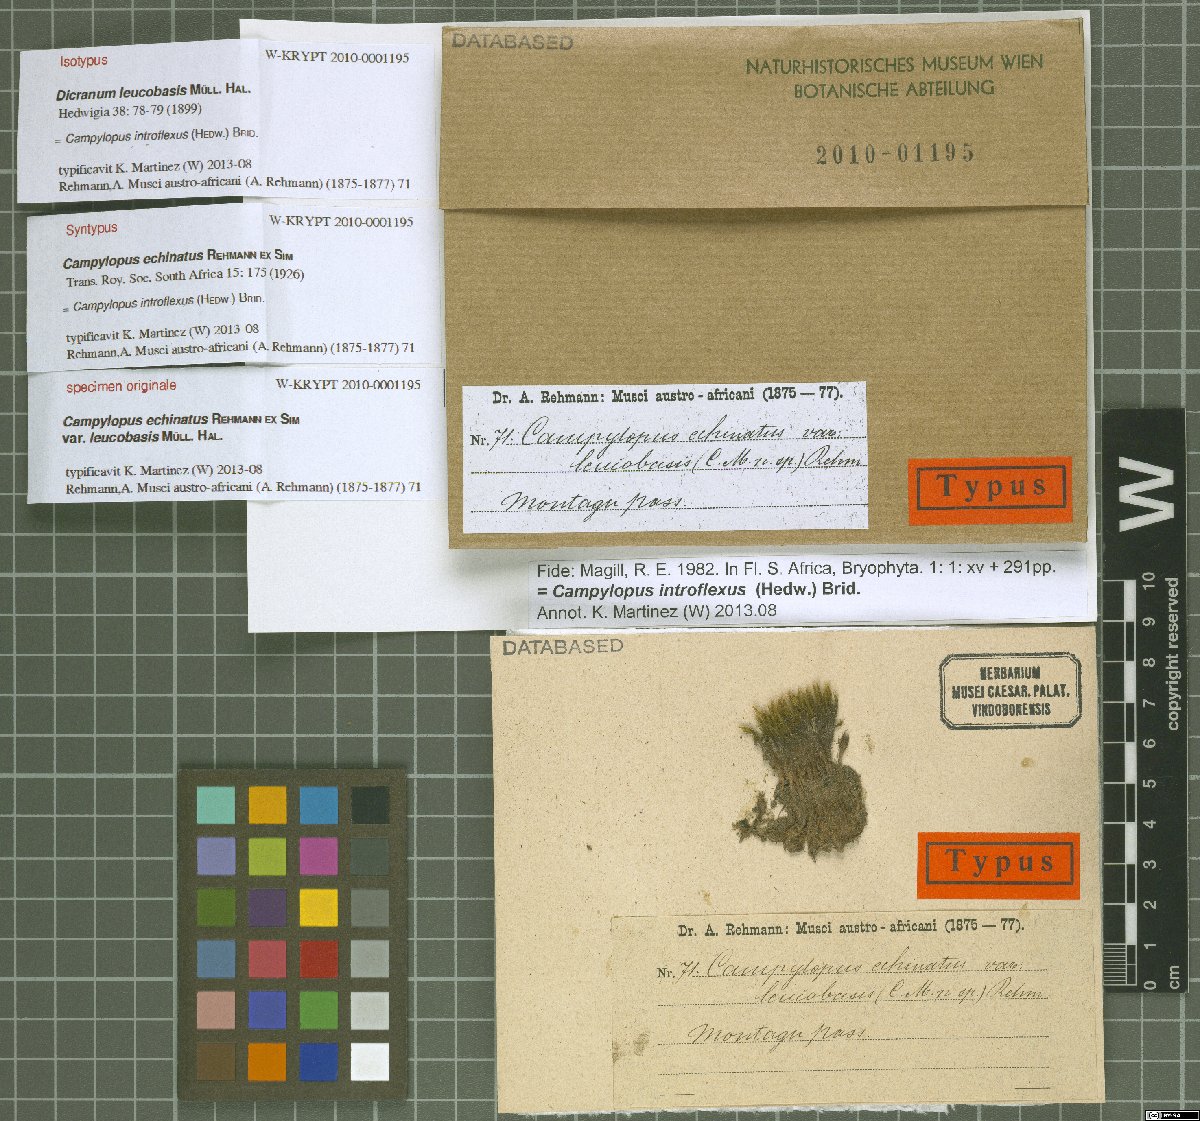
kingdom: Plantae
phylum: Bryophyta
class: Bryopsida
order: Dicranales
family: Dicranaceae
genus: Dicranum
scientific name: Dicranum fuscescens
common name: Curly heron's-bill moss
